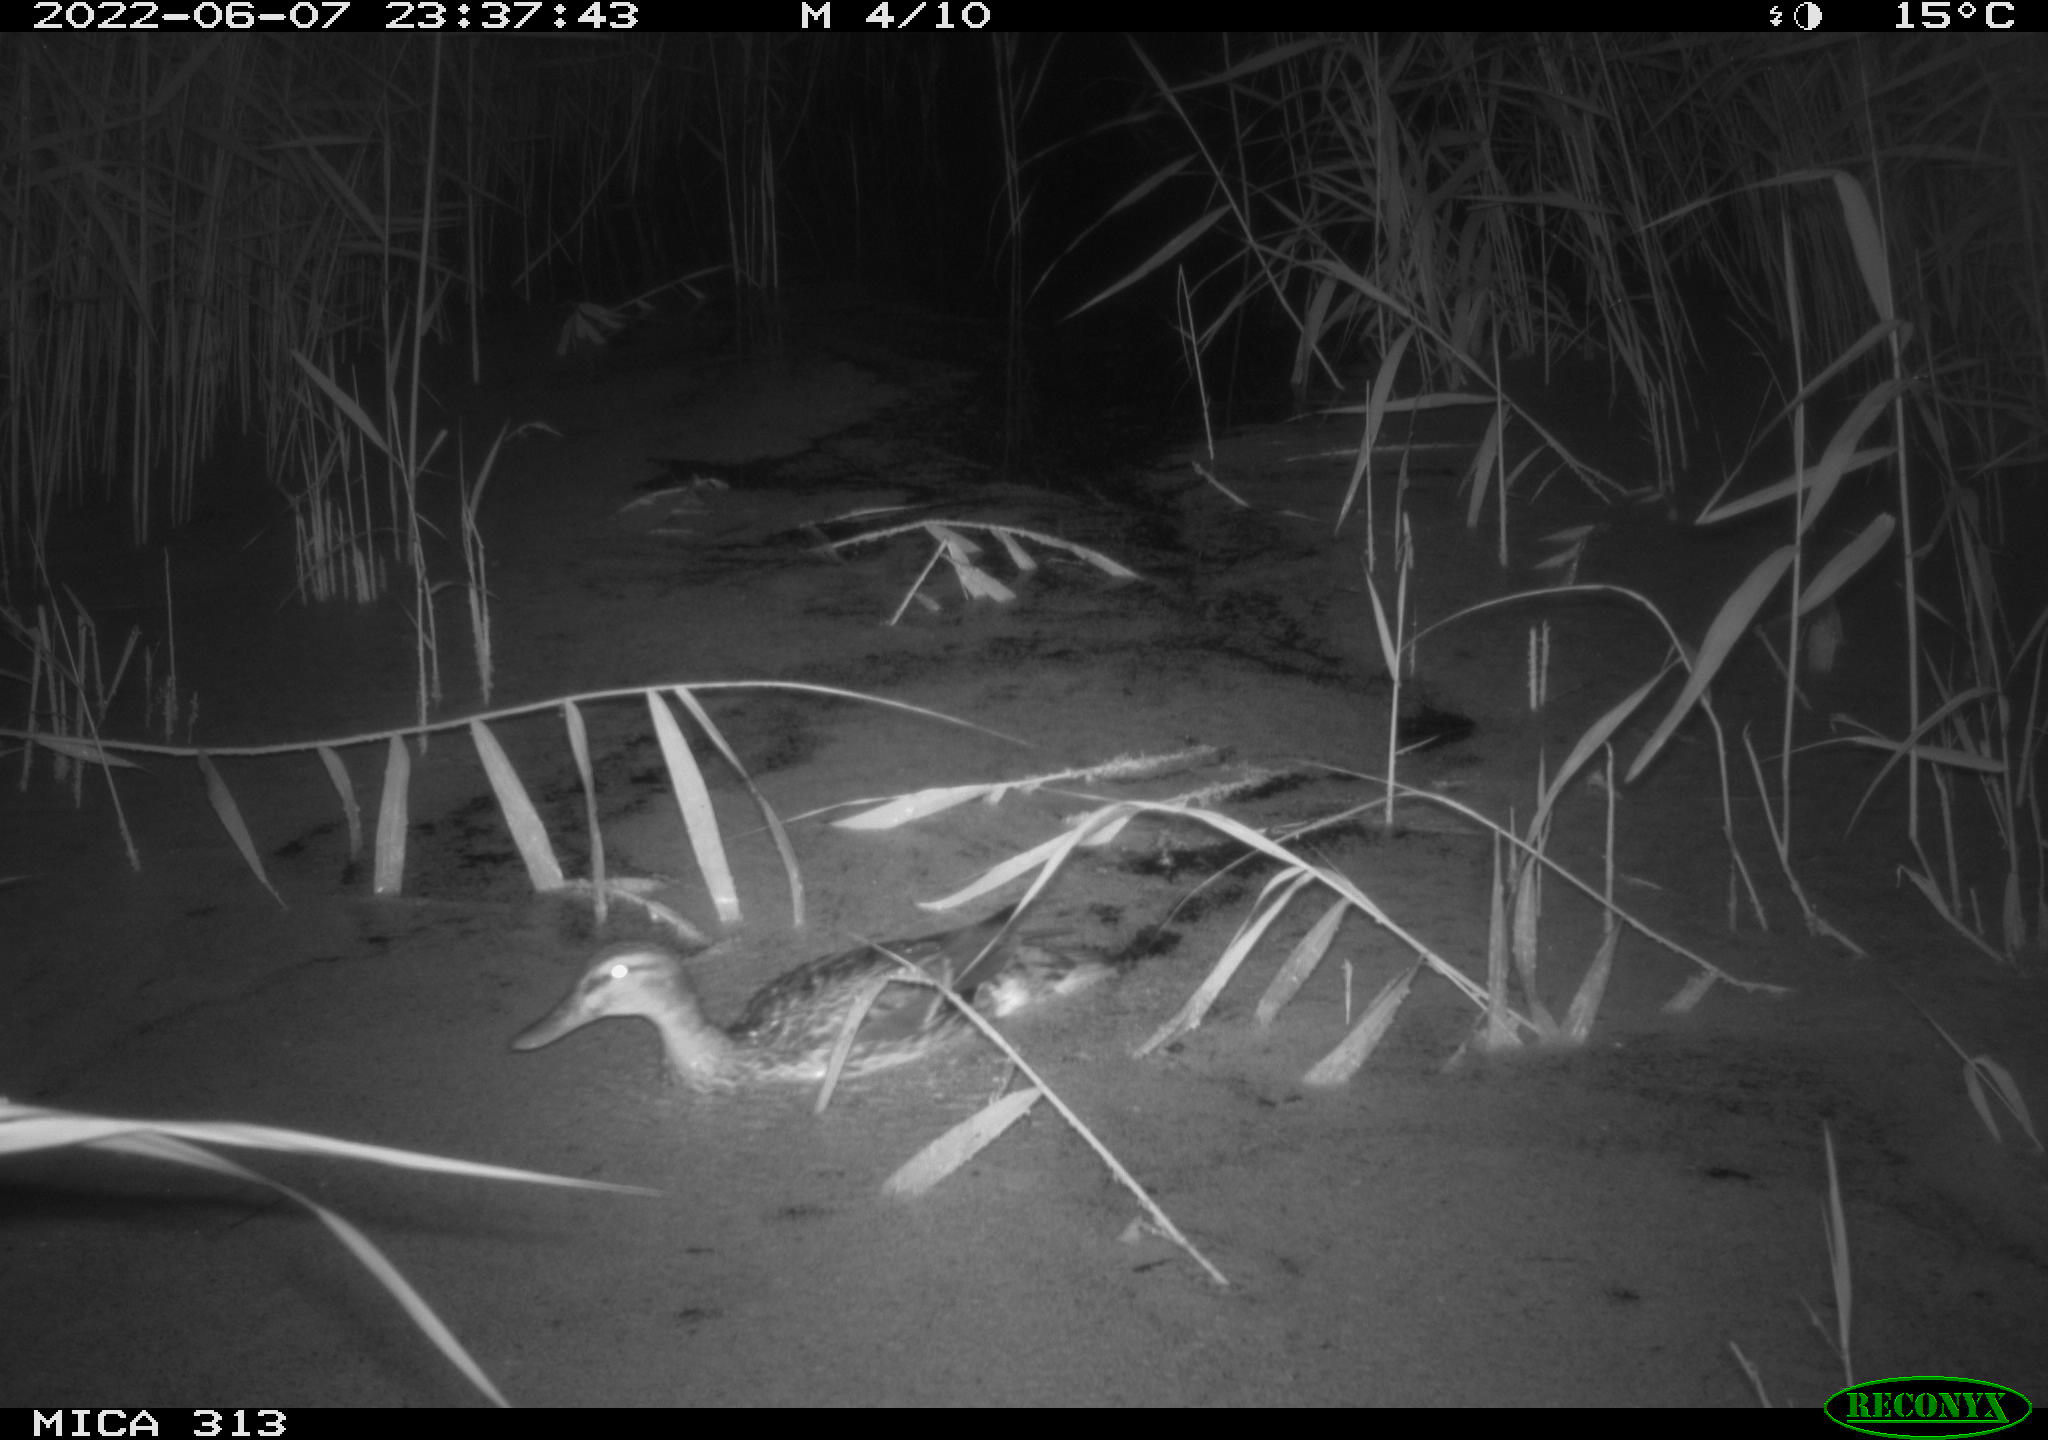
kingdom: Animalia
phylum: Chordata
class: Aves
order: Anseriformes
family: Anatidae
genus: Anas
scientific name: Anas platyrhynchos
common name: Mallard
